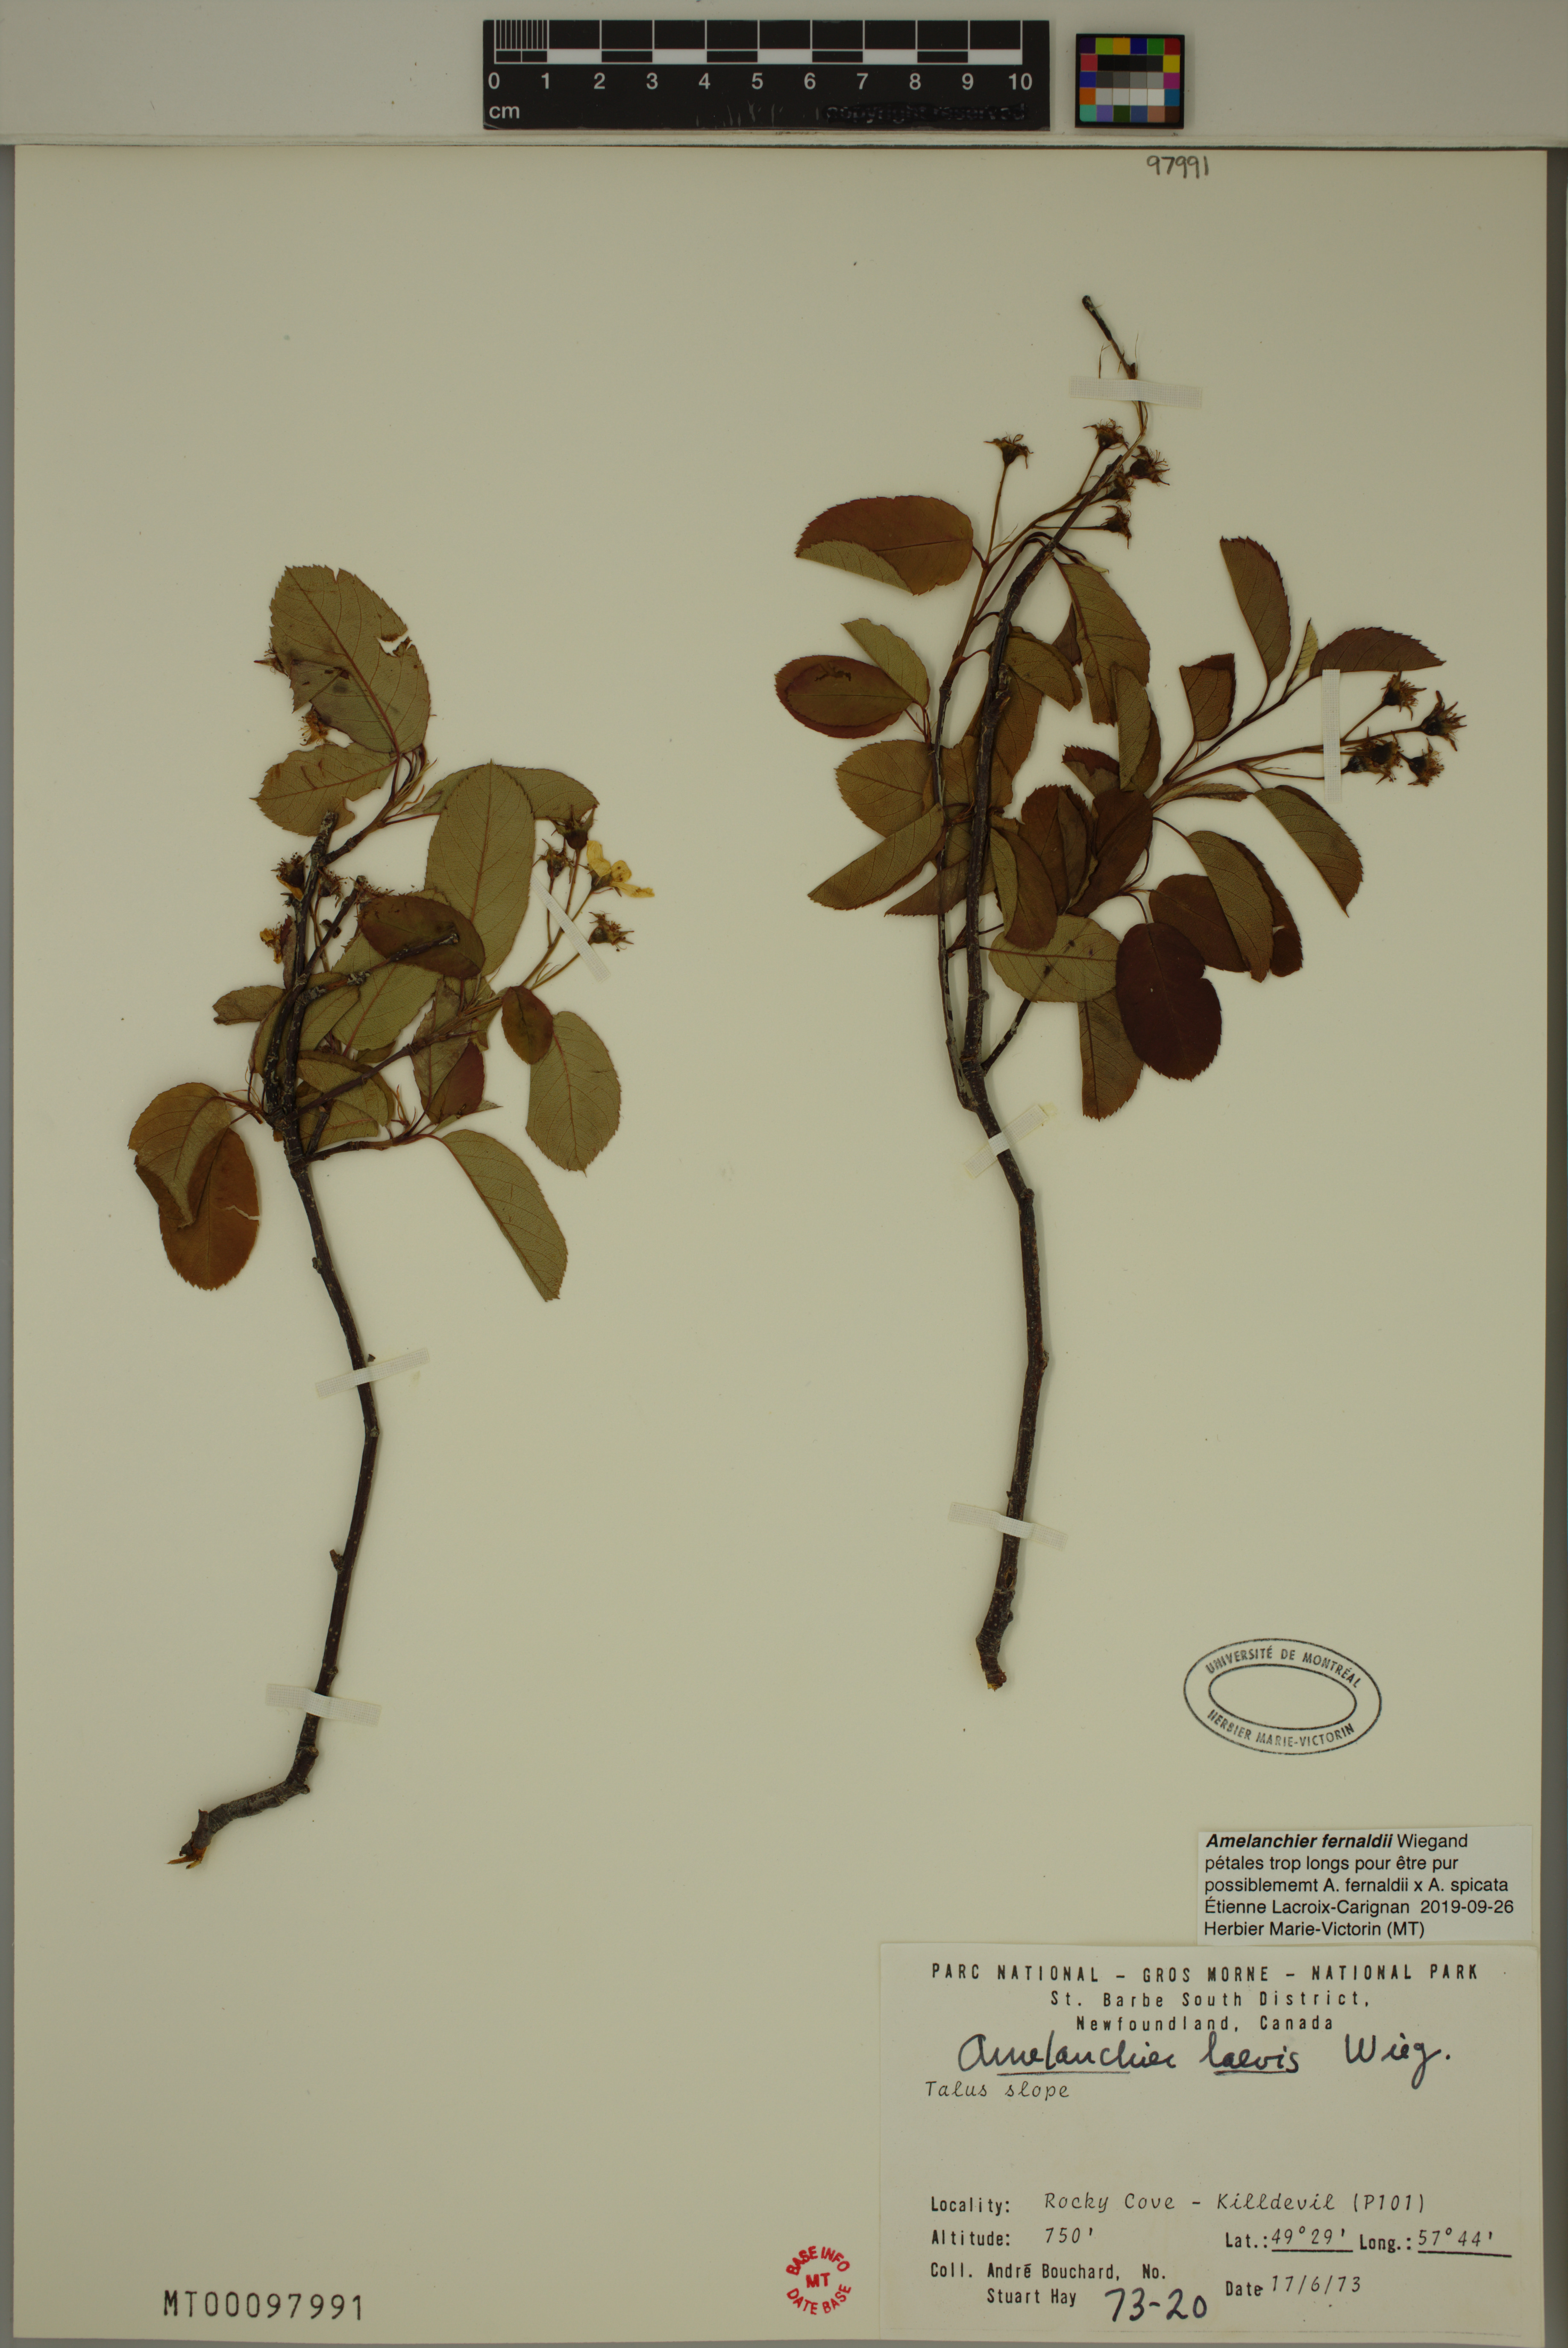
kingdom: Plantae
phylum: Tracheophyta
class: Magnoliopsida
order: Rosales
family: Rosaceae
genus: Amelanchier
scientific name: Amelanchier canadensis
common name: Thicket serviceberry
